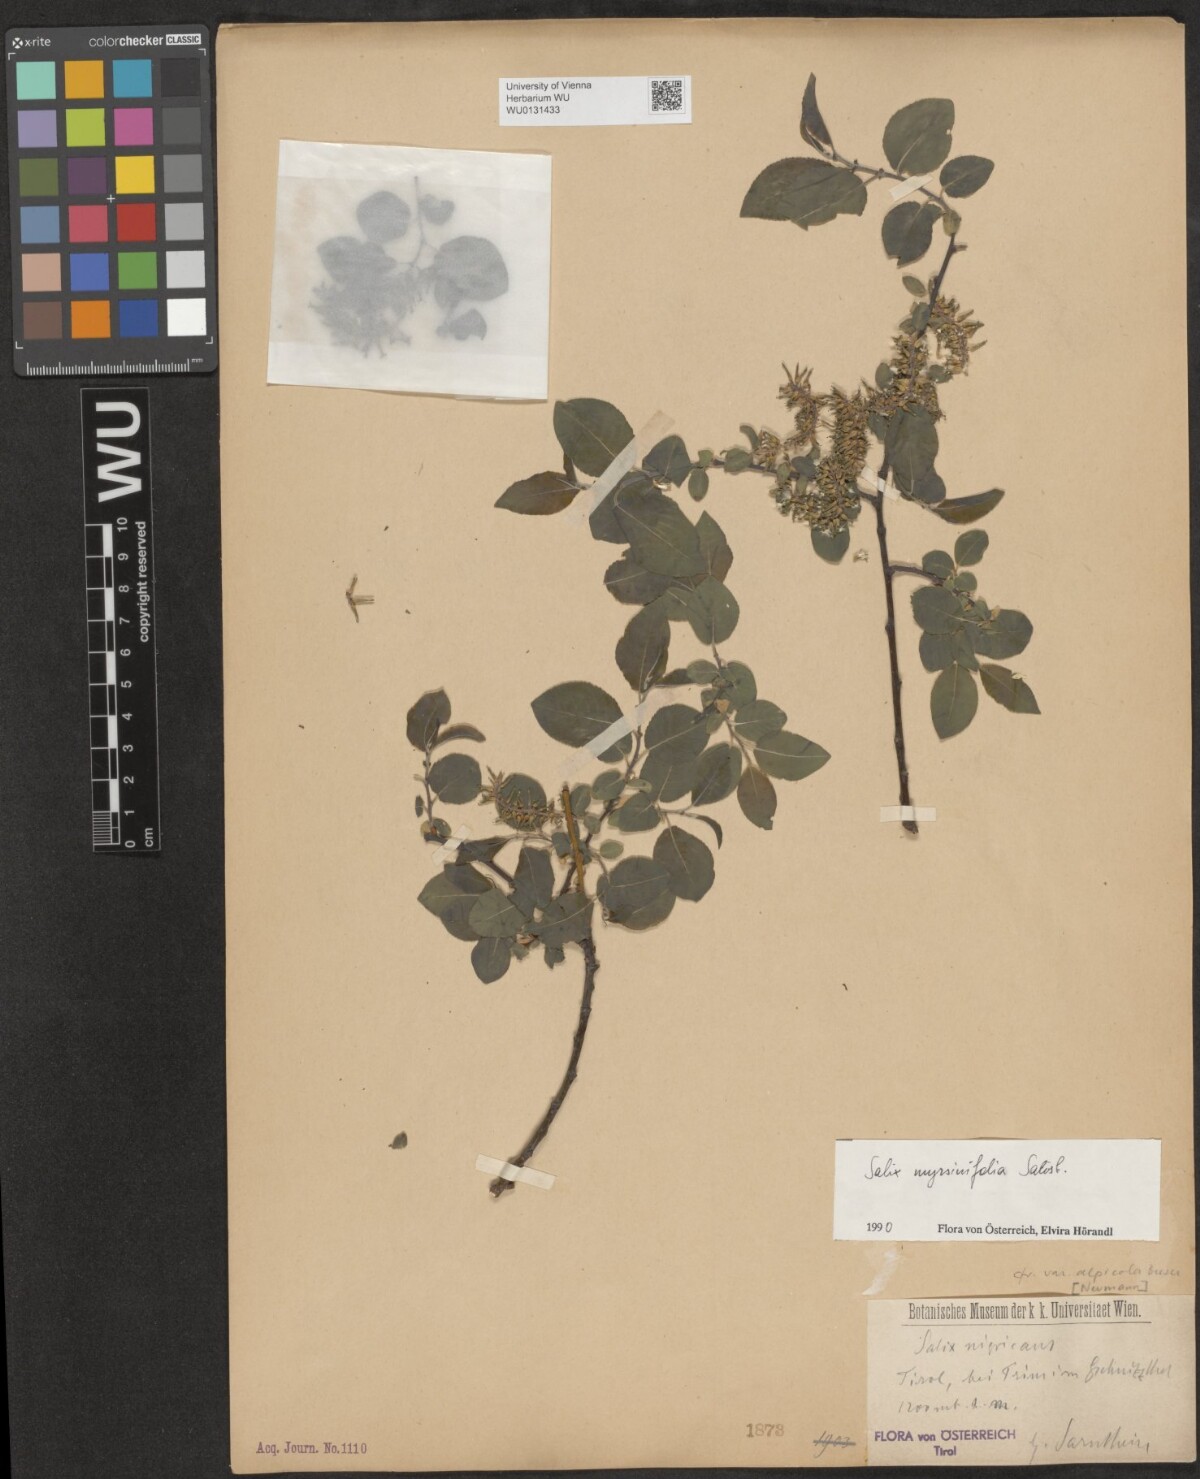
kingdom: Plantae
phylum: Tracheophyta
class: Magnoliopsida
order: Malpighiales
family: Salicaceae
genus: Salix
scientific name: Salix myrsinifolia
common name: Dark-leaved willow
